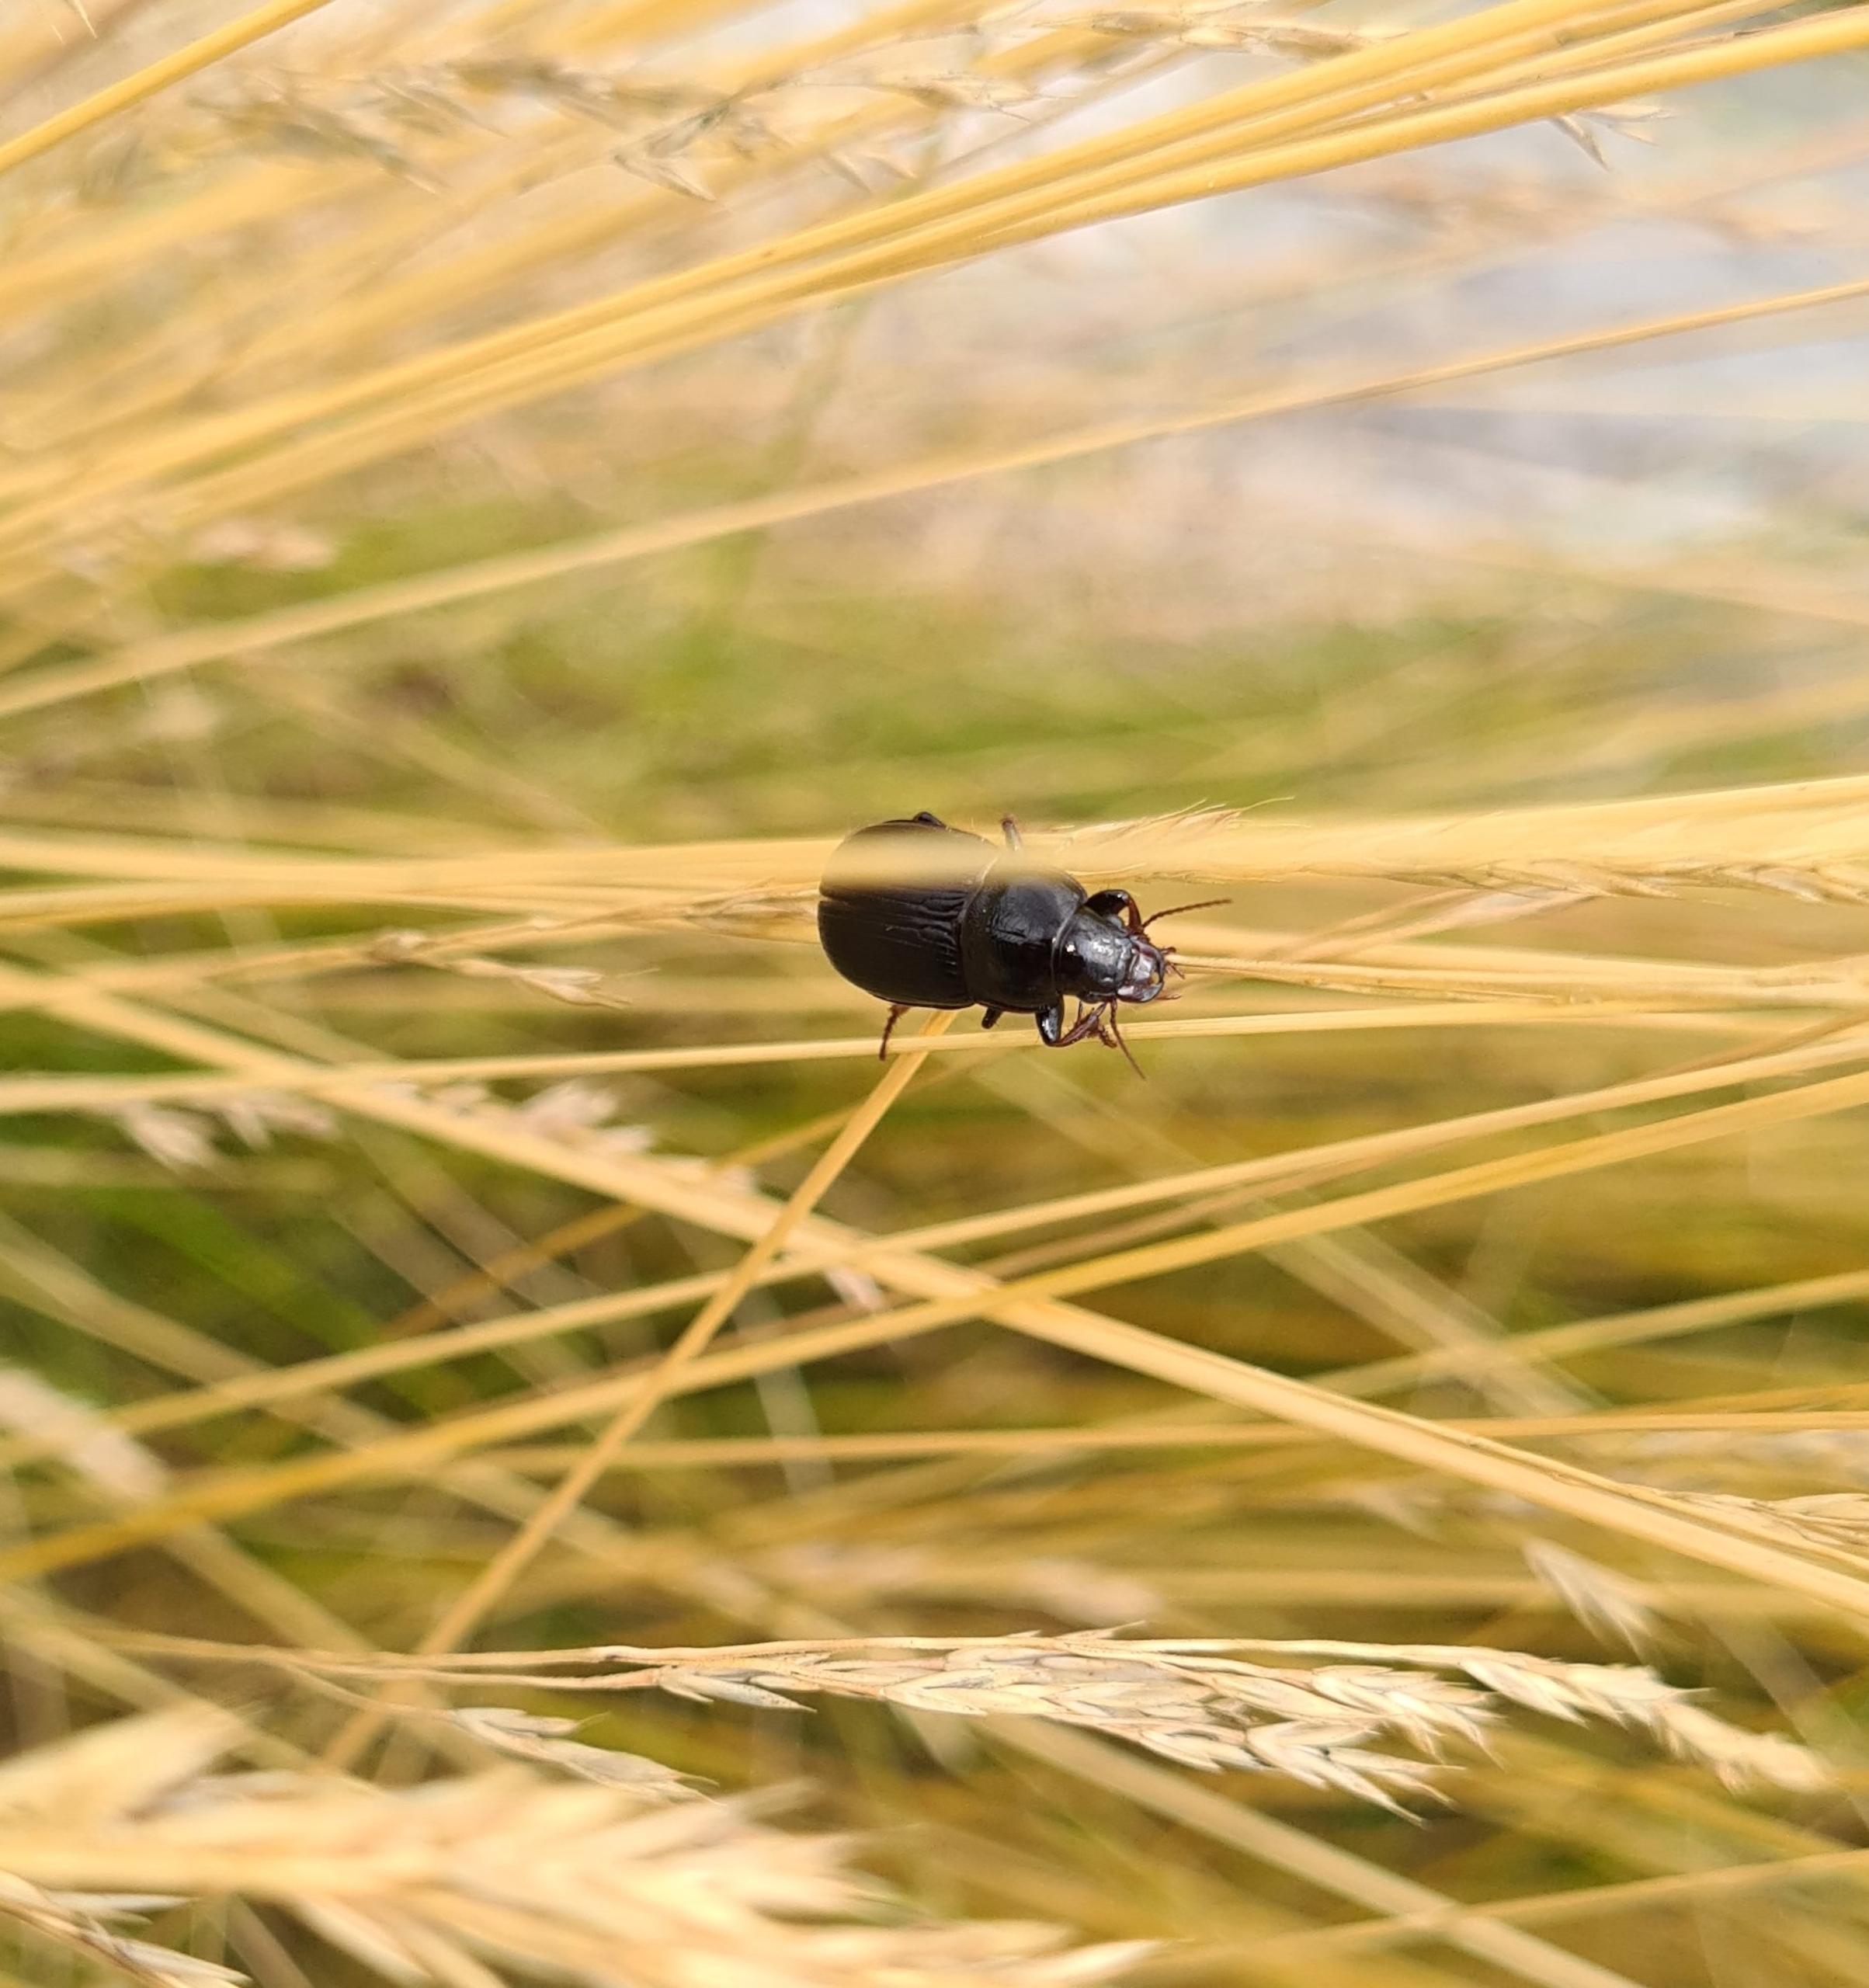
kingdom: Animalia
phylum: Arthropoda
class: Insecta
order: Coleoptera
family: Carabidae
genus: Zabrus
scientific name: Zabrus tenebrioides
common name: Aksløber
